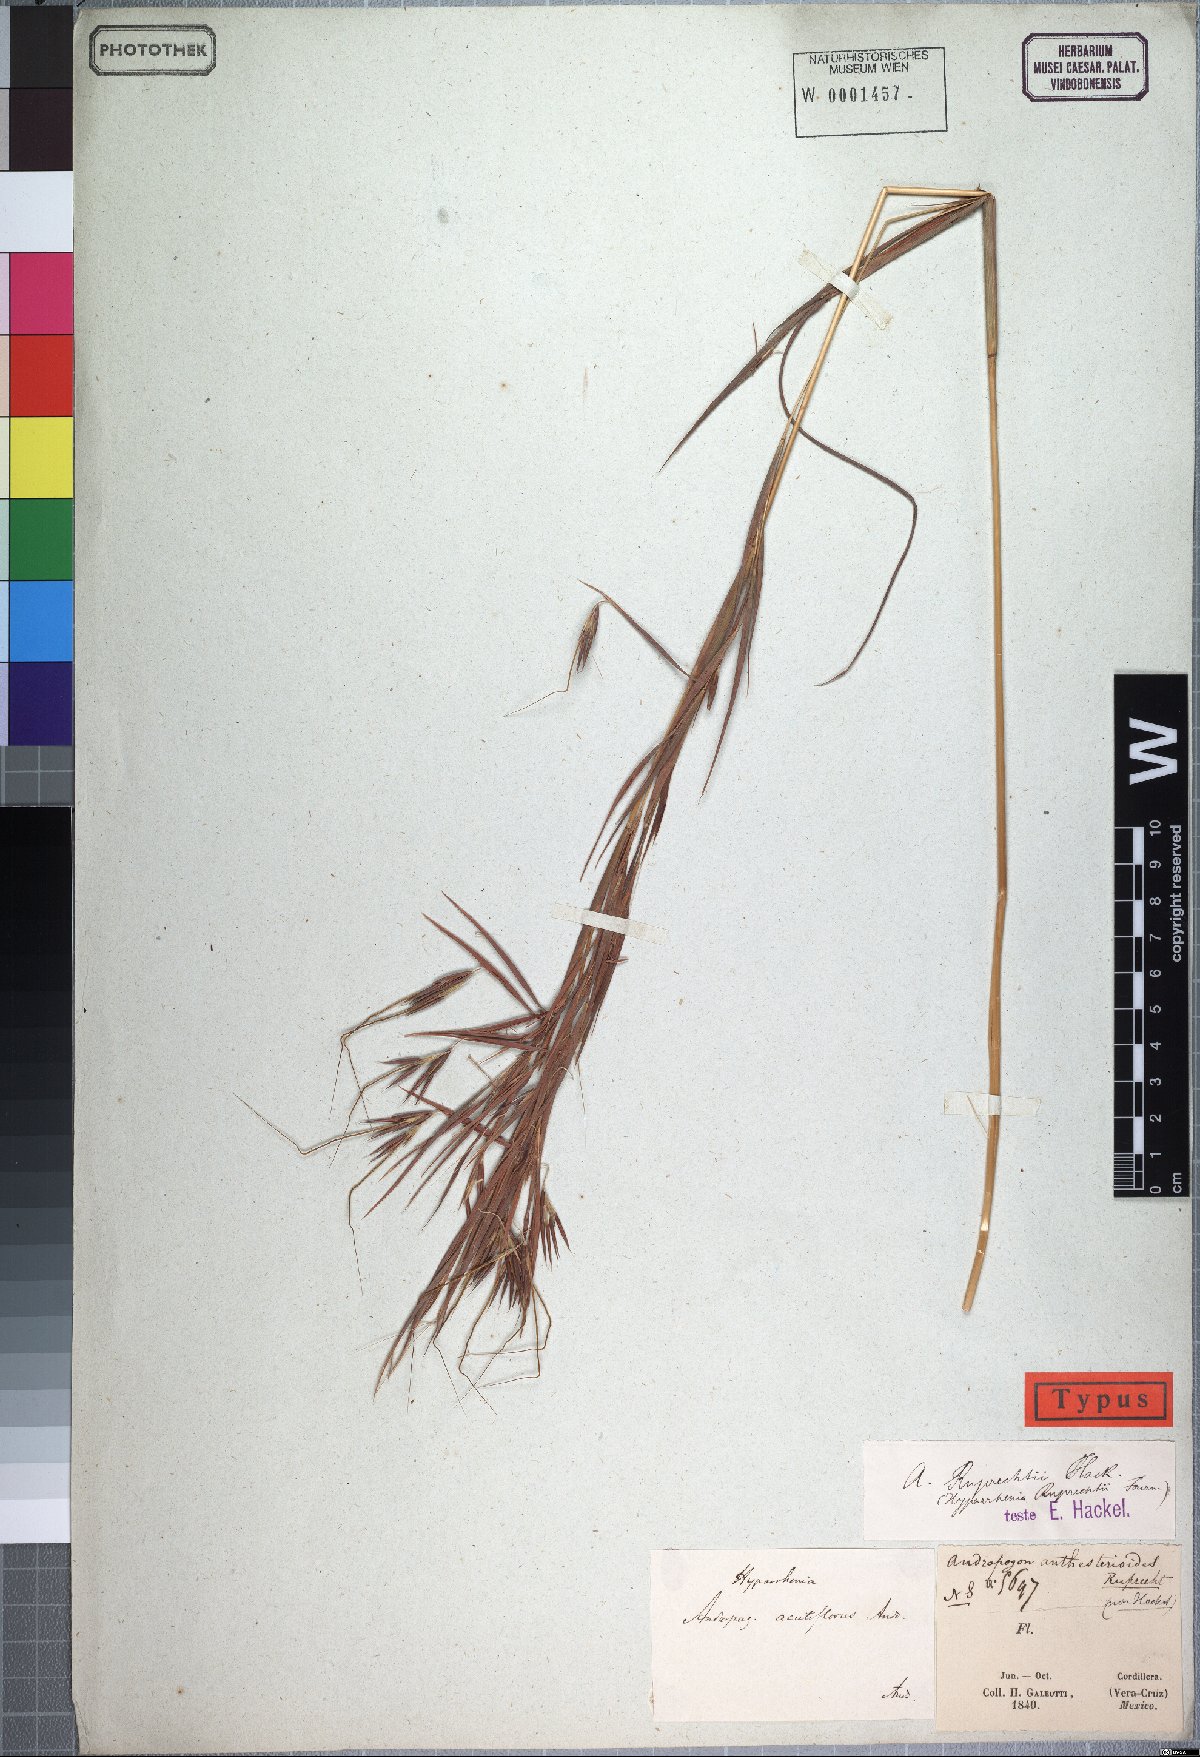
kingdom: Plantae
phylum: Tracheophyta
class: Liliopsida
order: Poales
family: Poaceae
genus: Hyperthelia
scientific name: Hyperthelia dissoluta
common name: Yellow thatching grass
